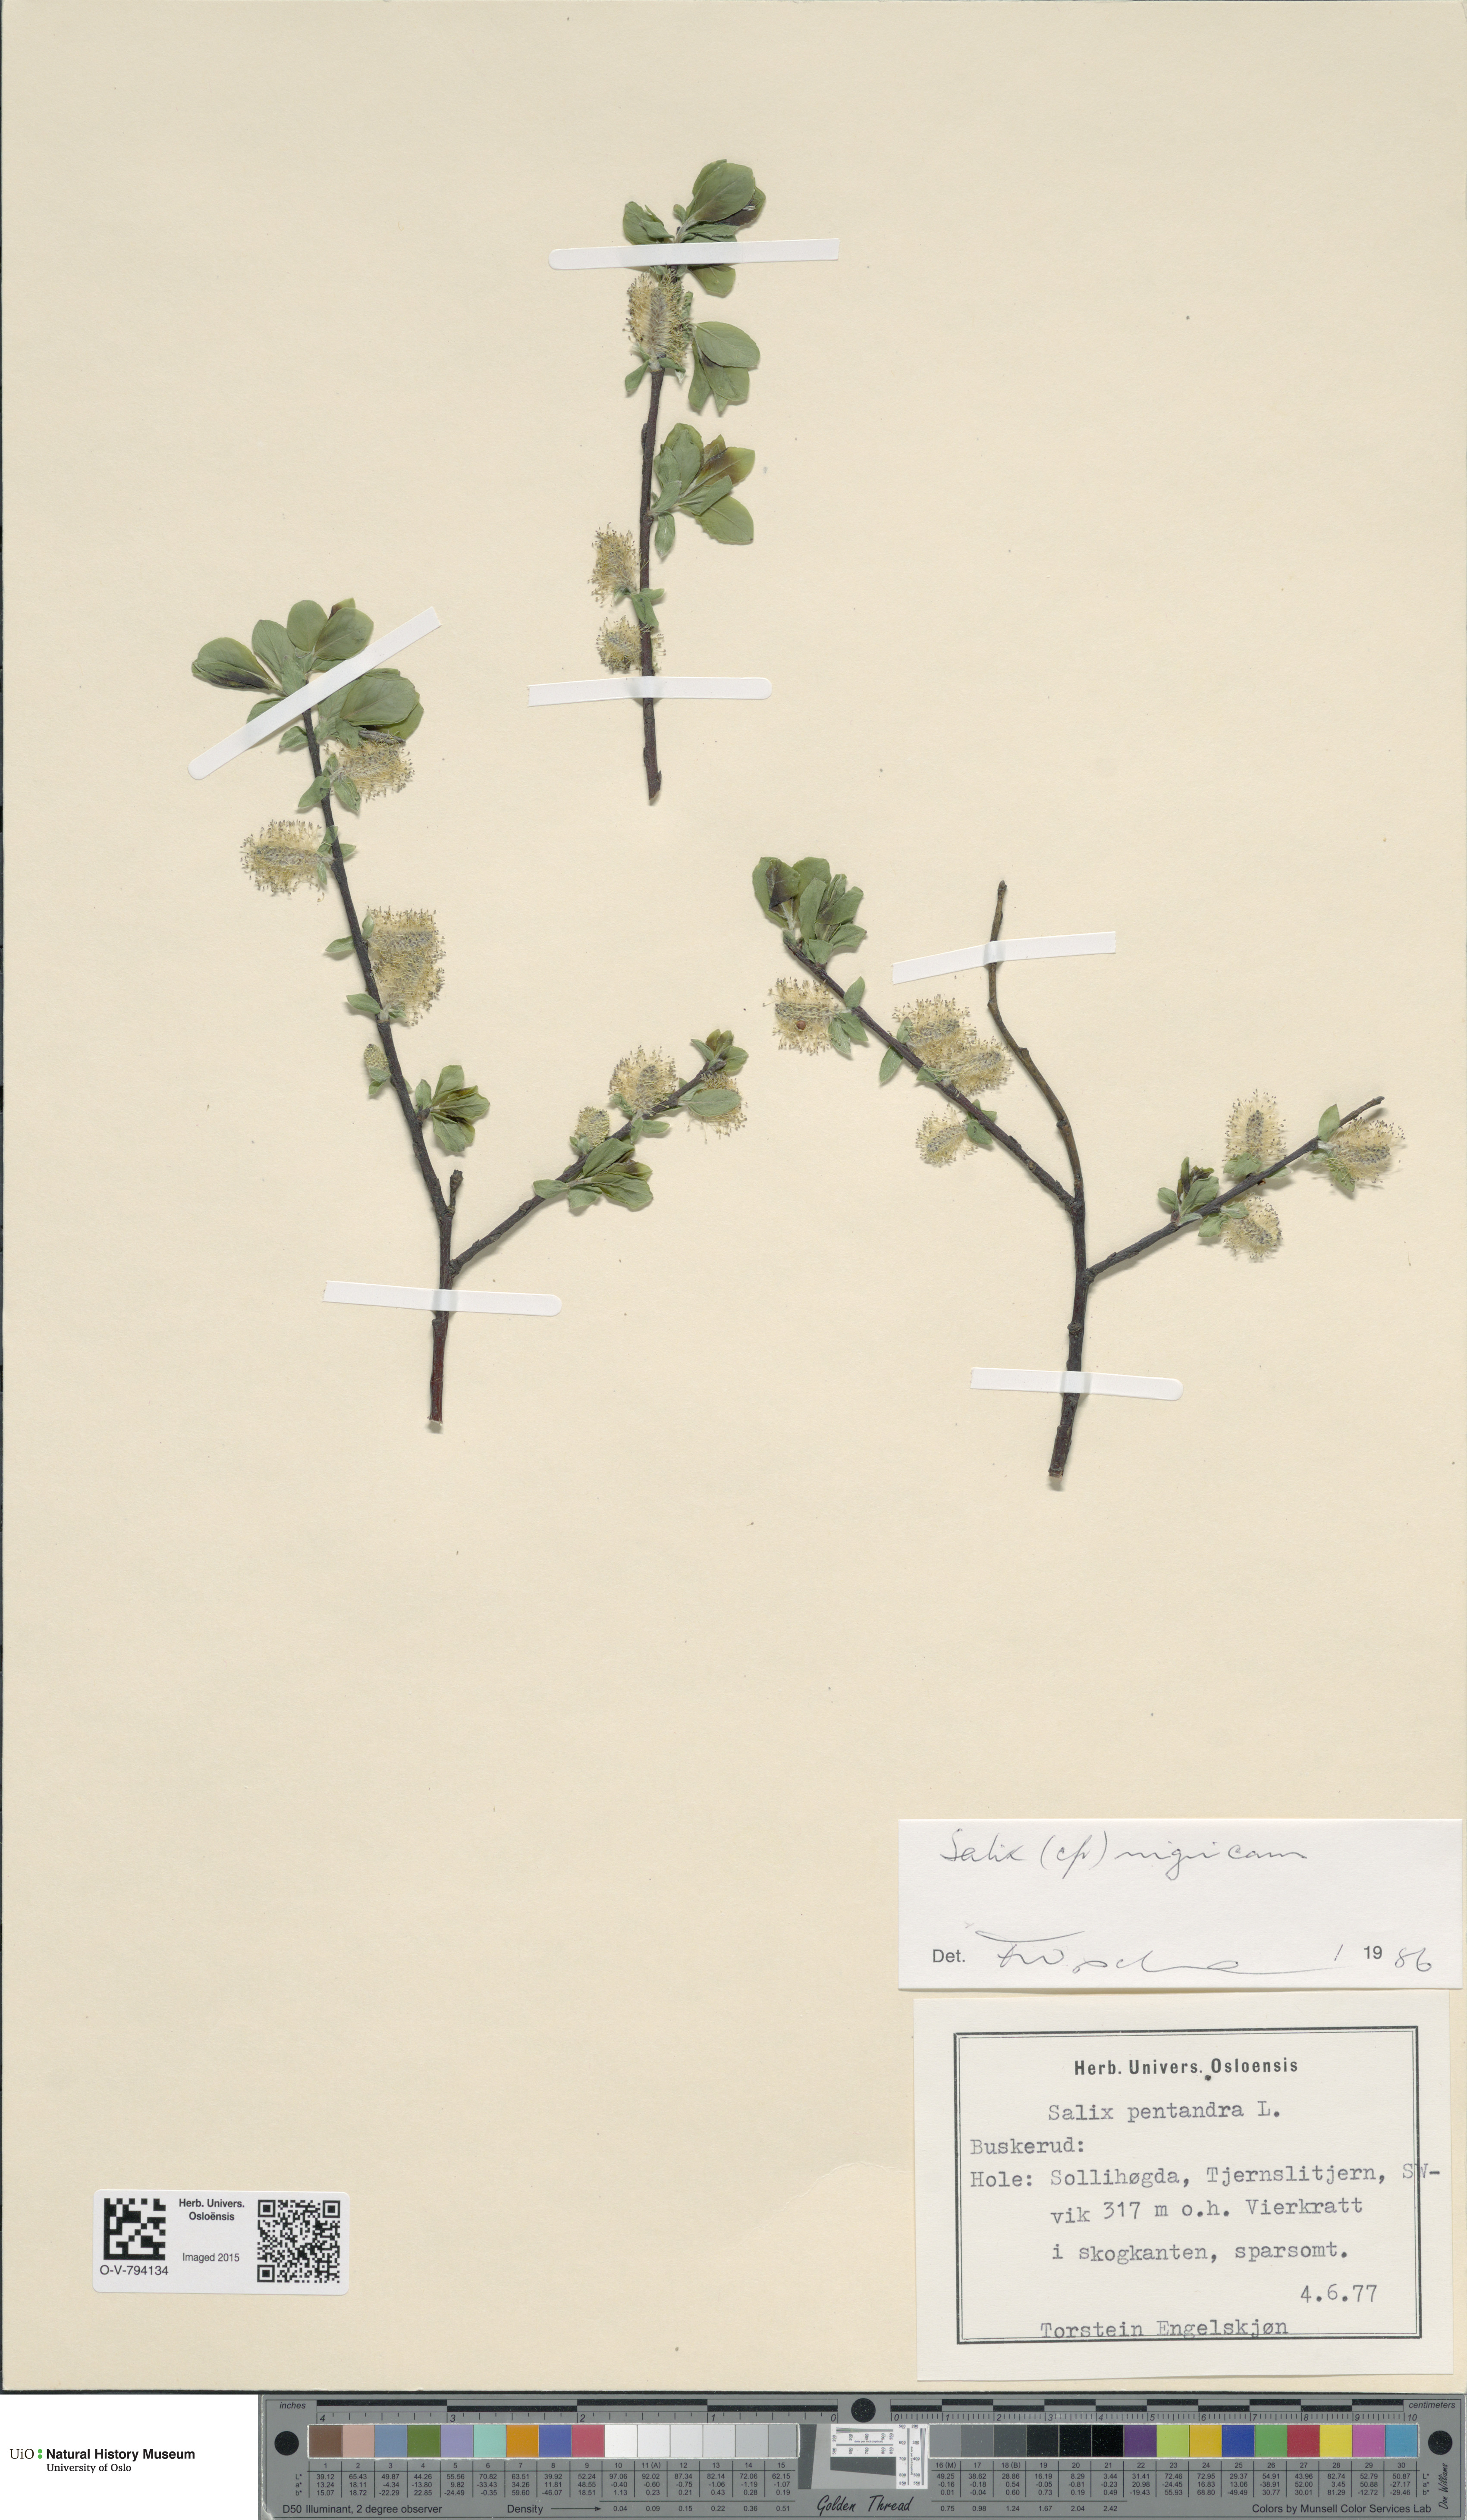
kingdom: Plantae
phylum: Tracheophyta
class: Magnoliopsida
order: Malpighiales
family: Salicaceae
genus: Salix
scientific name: Salix myrsinifolia
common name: Dark-leaved willow
